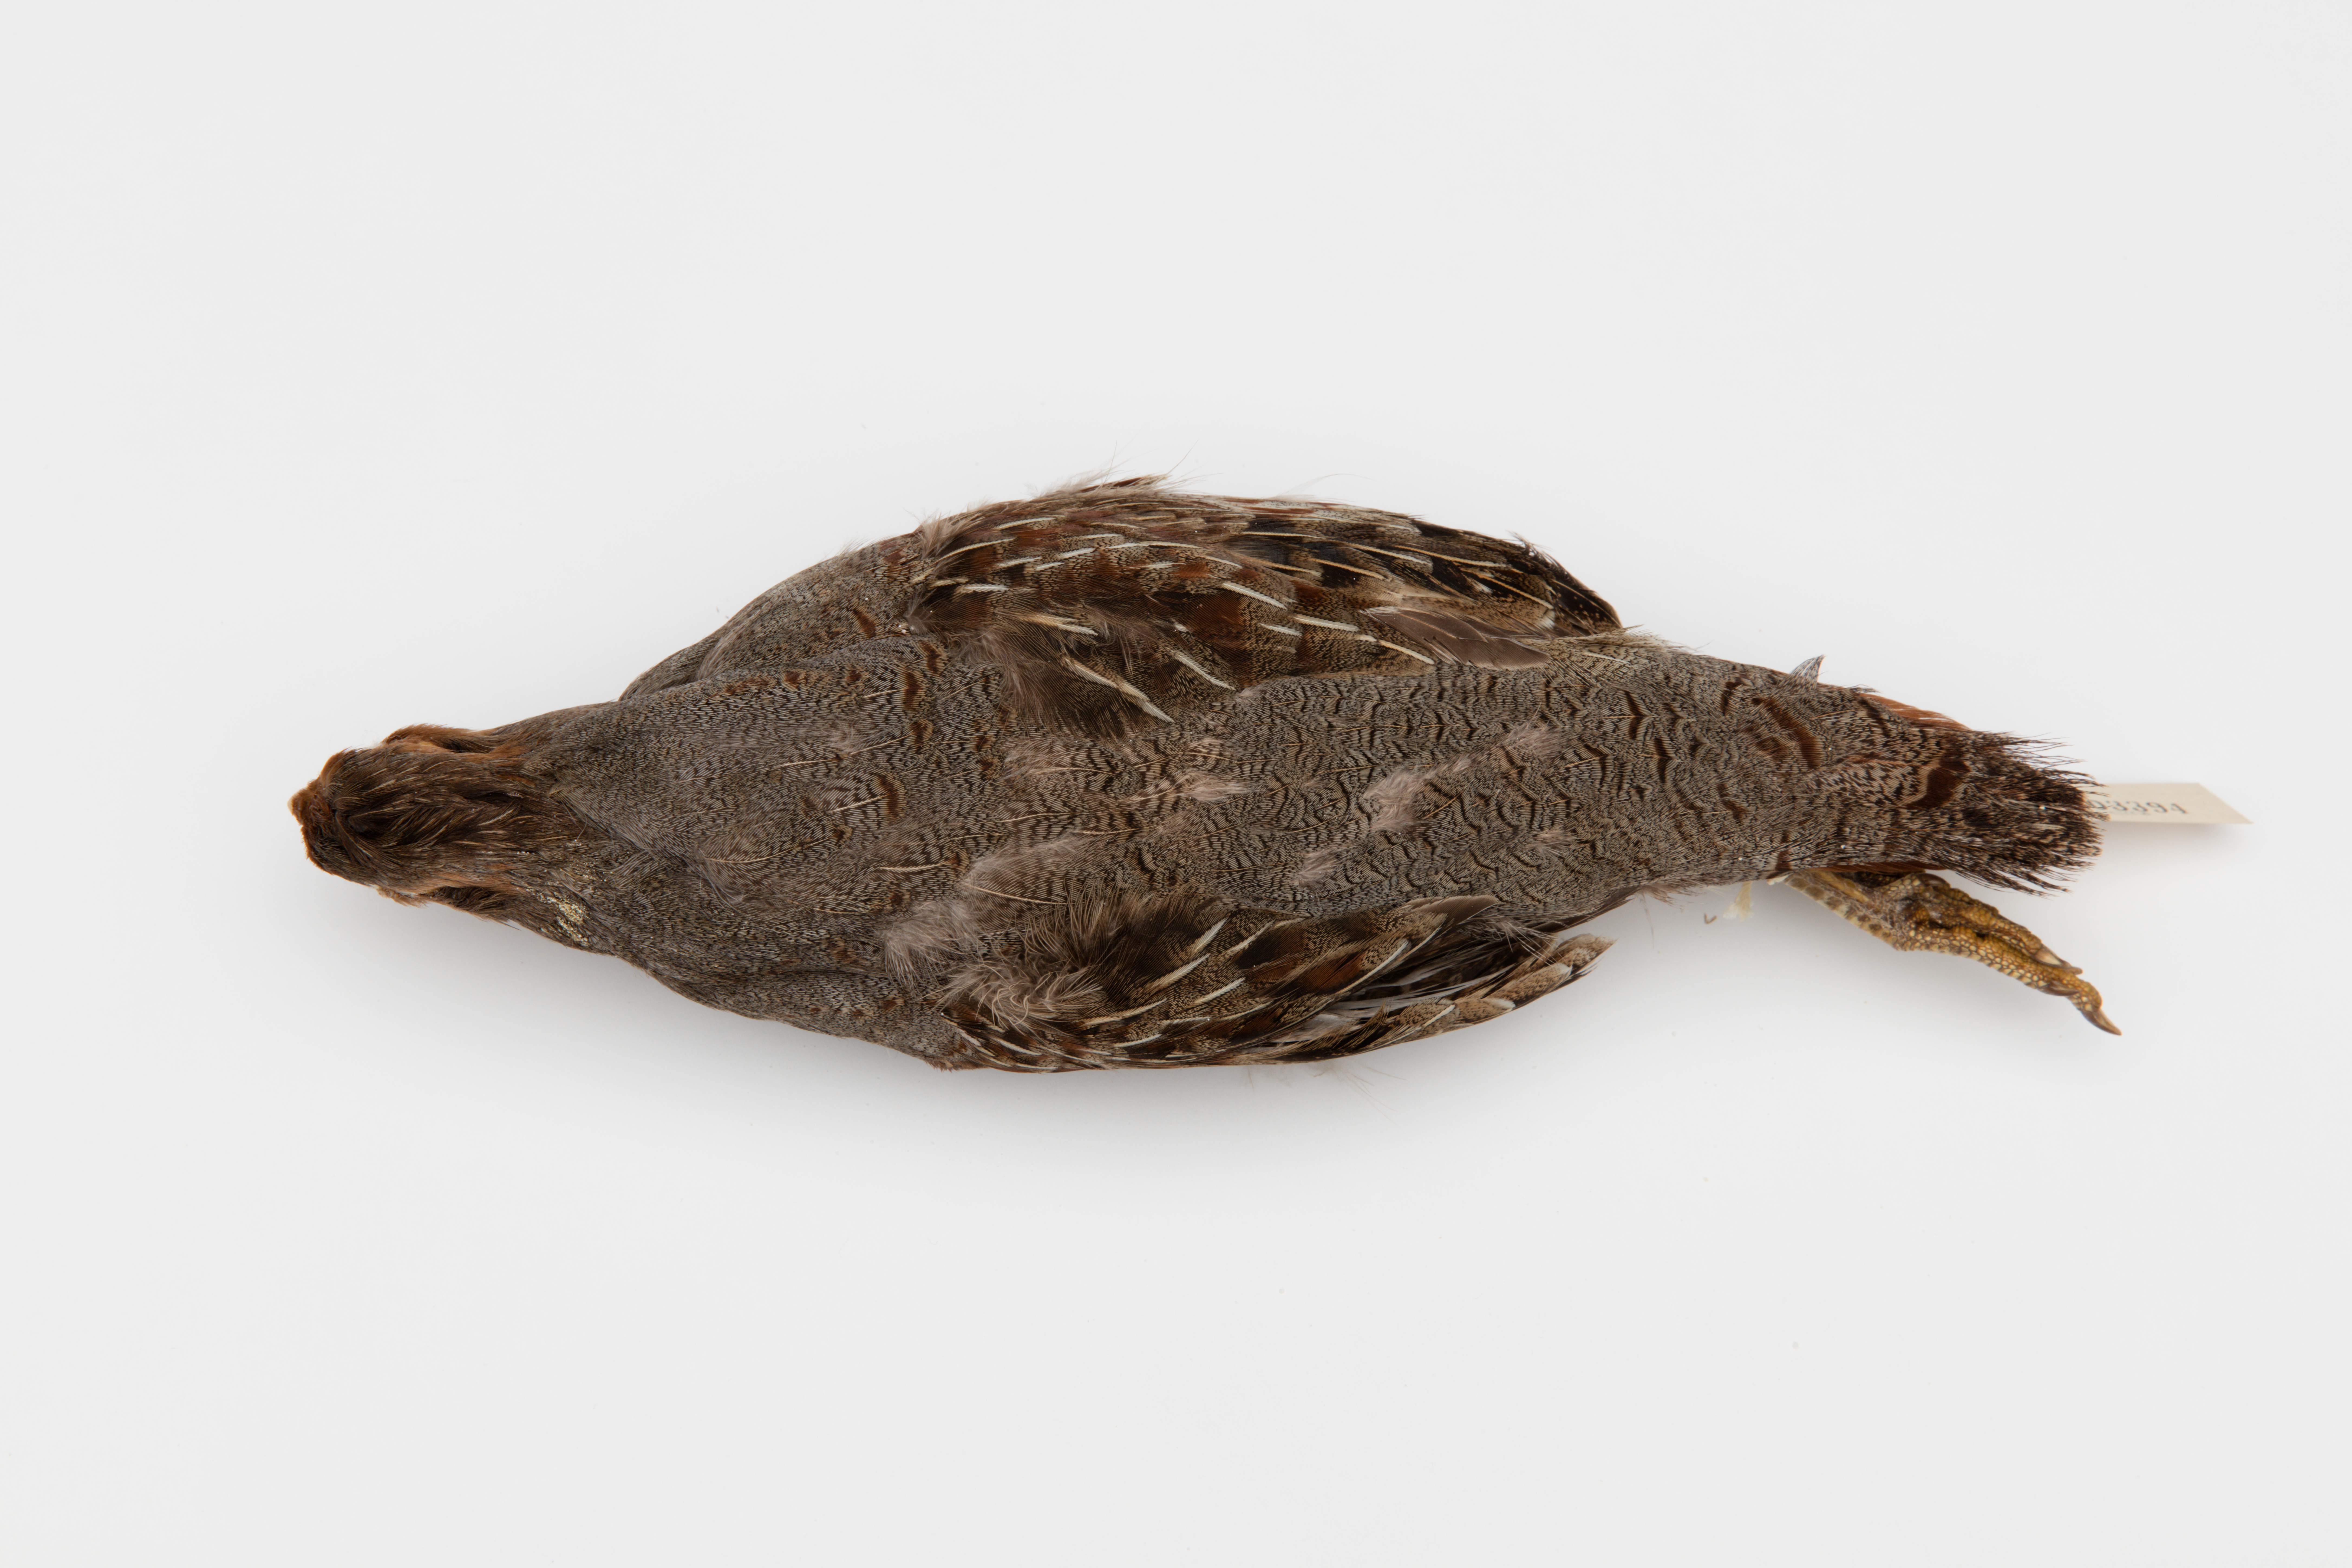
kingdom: Animalia
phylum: Chordata
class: Aves
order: Galliformes
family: Phasianidae
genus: Perdix
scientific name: Perdix perdix
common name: Grey partridge
